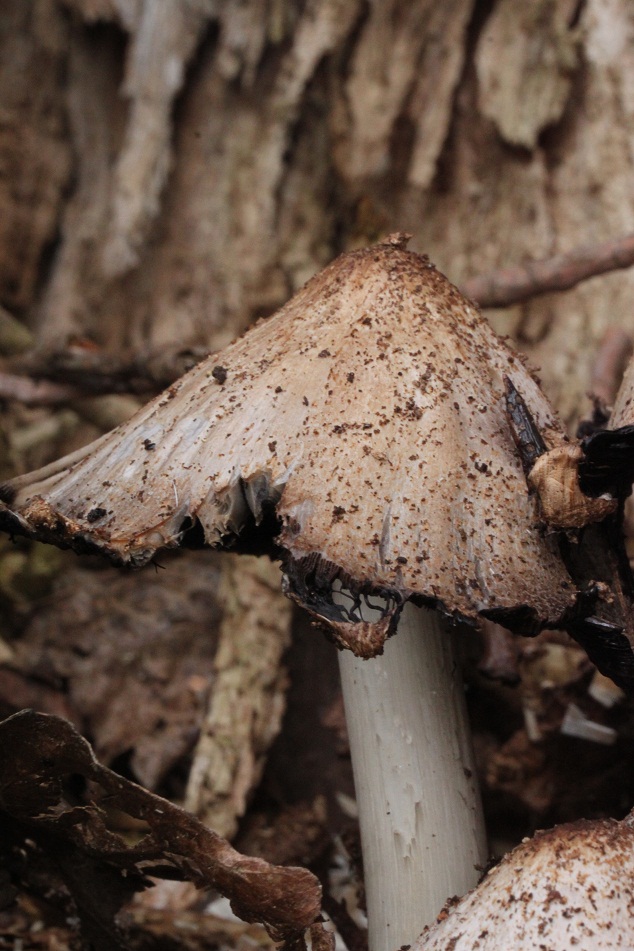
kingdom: Fungi
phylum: Basidiomycota
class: Agaricomycetes
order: Agaricales
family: Psathyrellaceae
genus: Coprinopsis
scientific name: Coprinopsis romagnesiana
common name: brunskællet blækhat
